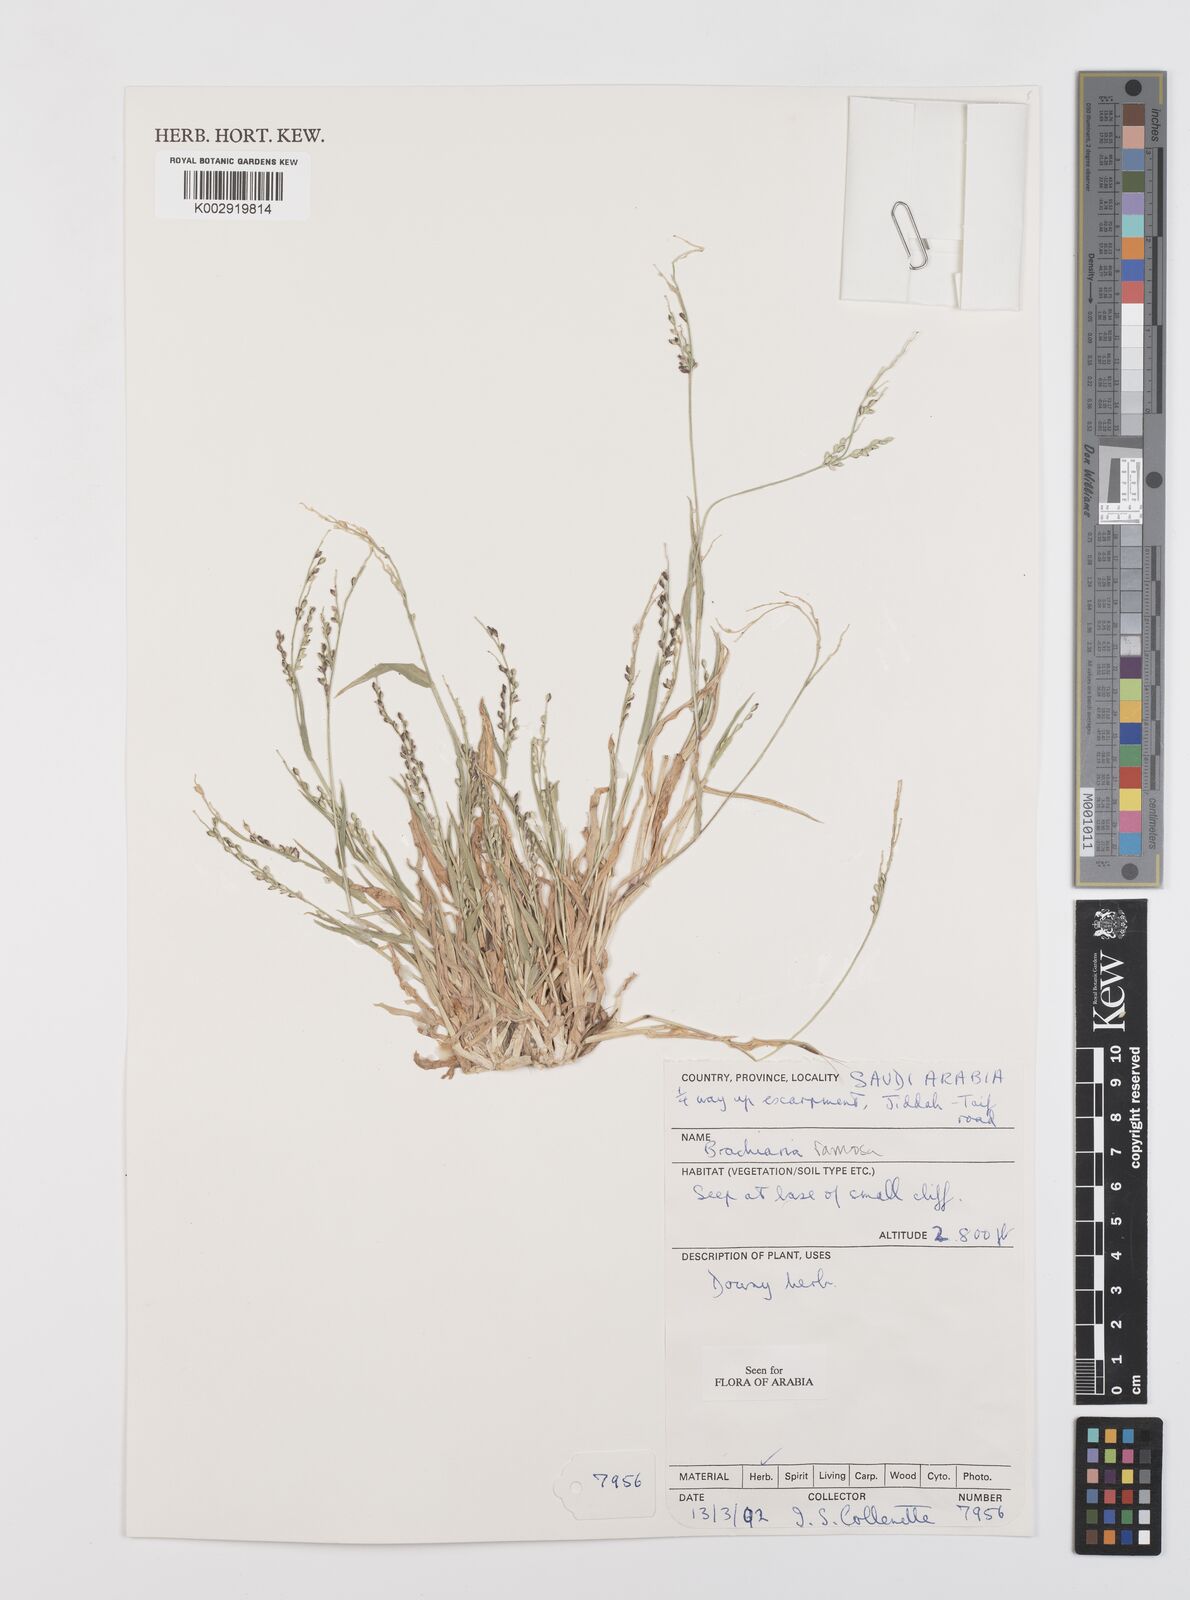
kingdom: Plantae
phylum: Tracheophyta
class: Liliopsida
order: Poales
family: Poaceae
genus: Urochloa
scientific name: Urochloa ramosa
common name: Browntop millet
